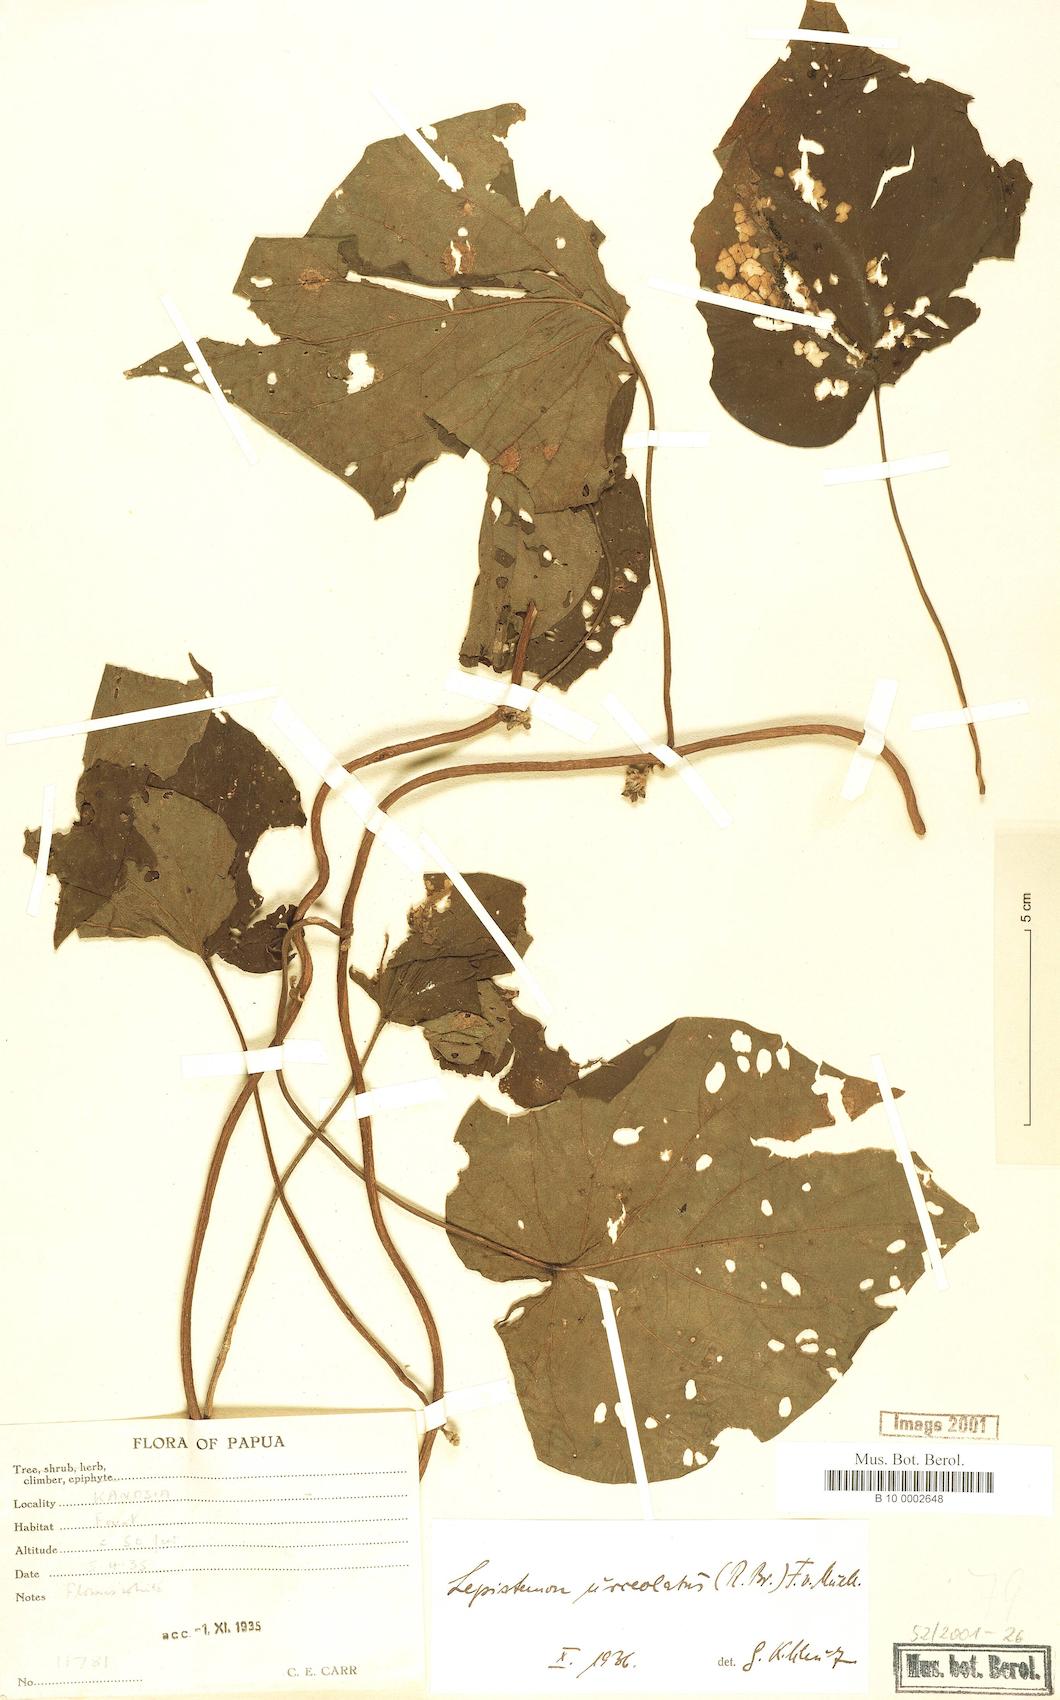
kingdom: Plantae
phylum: Tracheophyta
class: Magnoliopsida
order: Solanales
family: Convolvulaceae
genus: Lepistemon
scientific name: Lepistemon urceolatus
